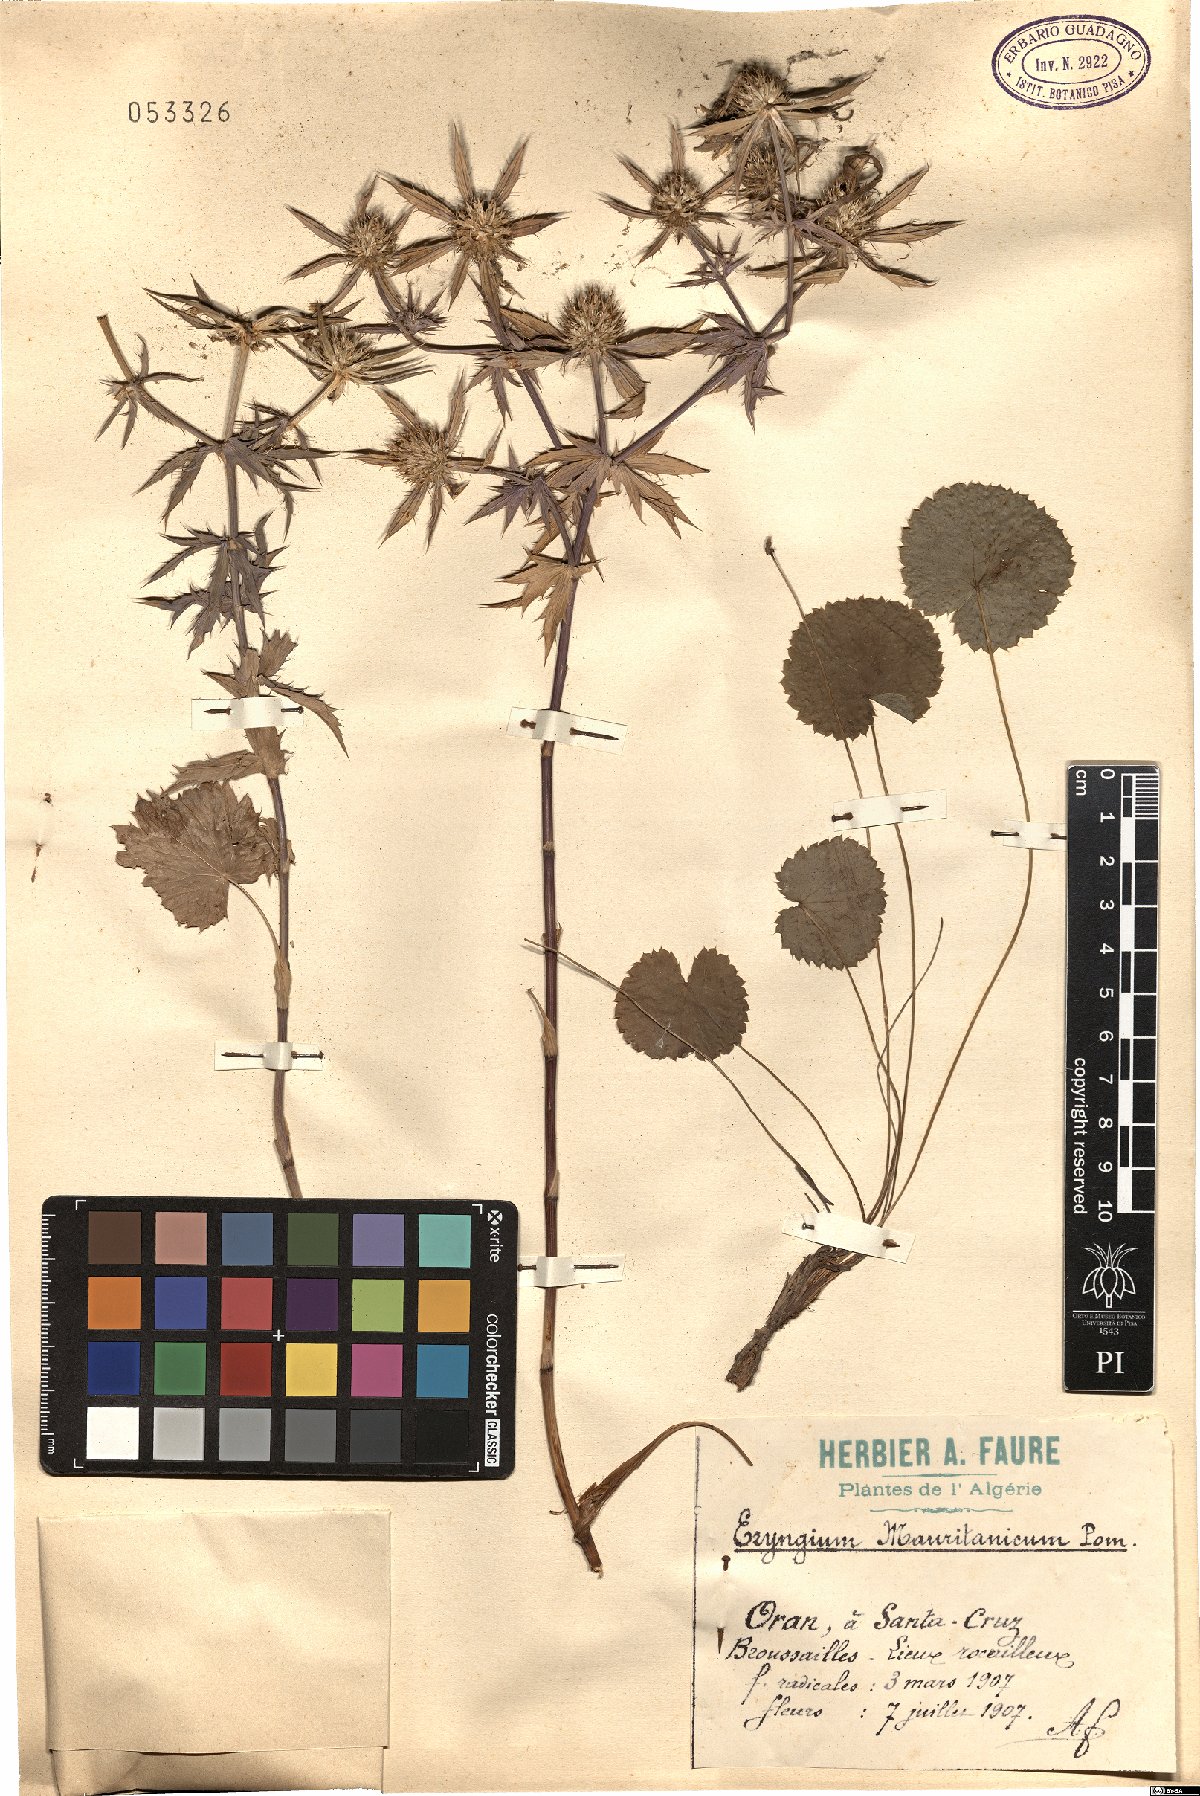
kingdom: Plantae
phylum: Tracheophyta
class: Magnoliopsida
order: Apiales
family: Apiaceae
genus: Eryngium
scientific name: Eryngium tricuspidatum
